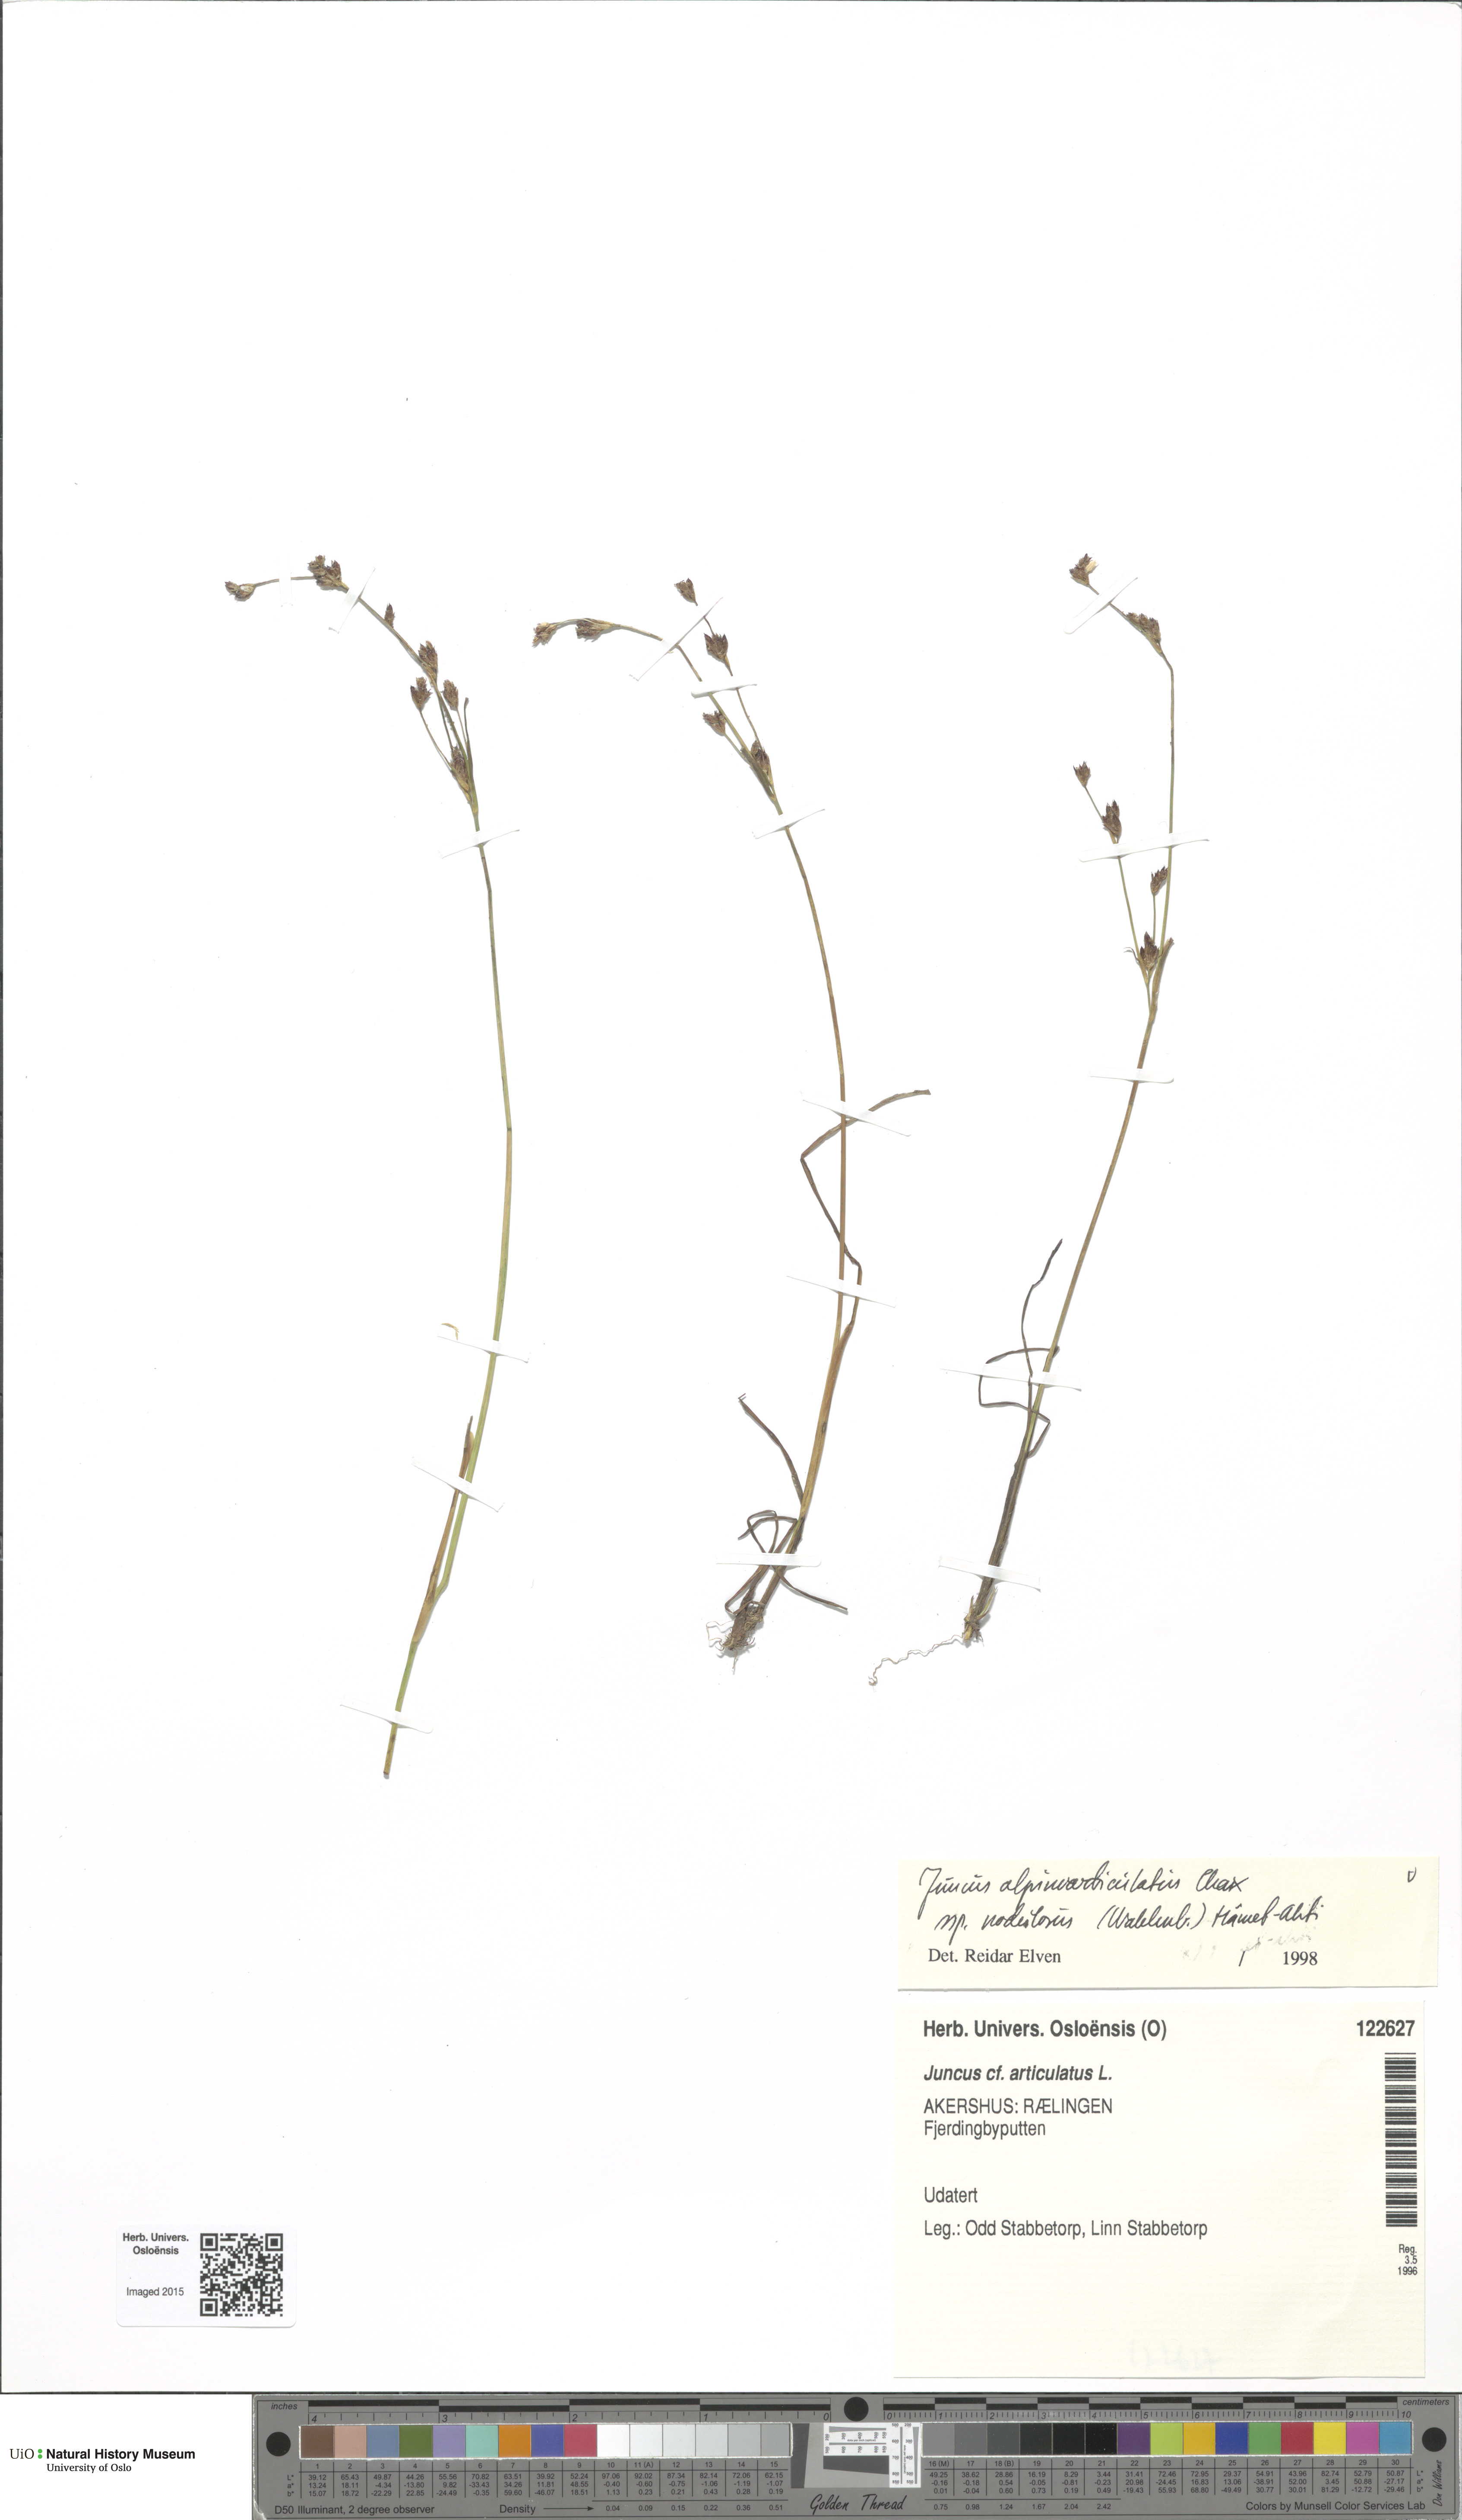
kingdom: Plantae
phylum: Tracheophyta
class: Liliopsida
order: Poales
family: Juncaceae
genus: Juncus
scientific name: Juncus alpinoarticulatus
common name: Alpine rush
